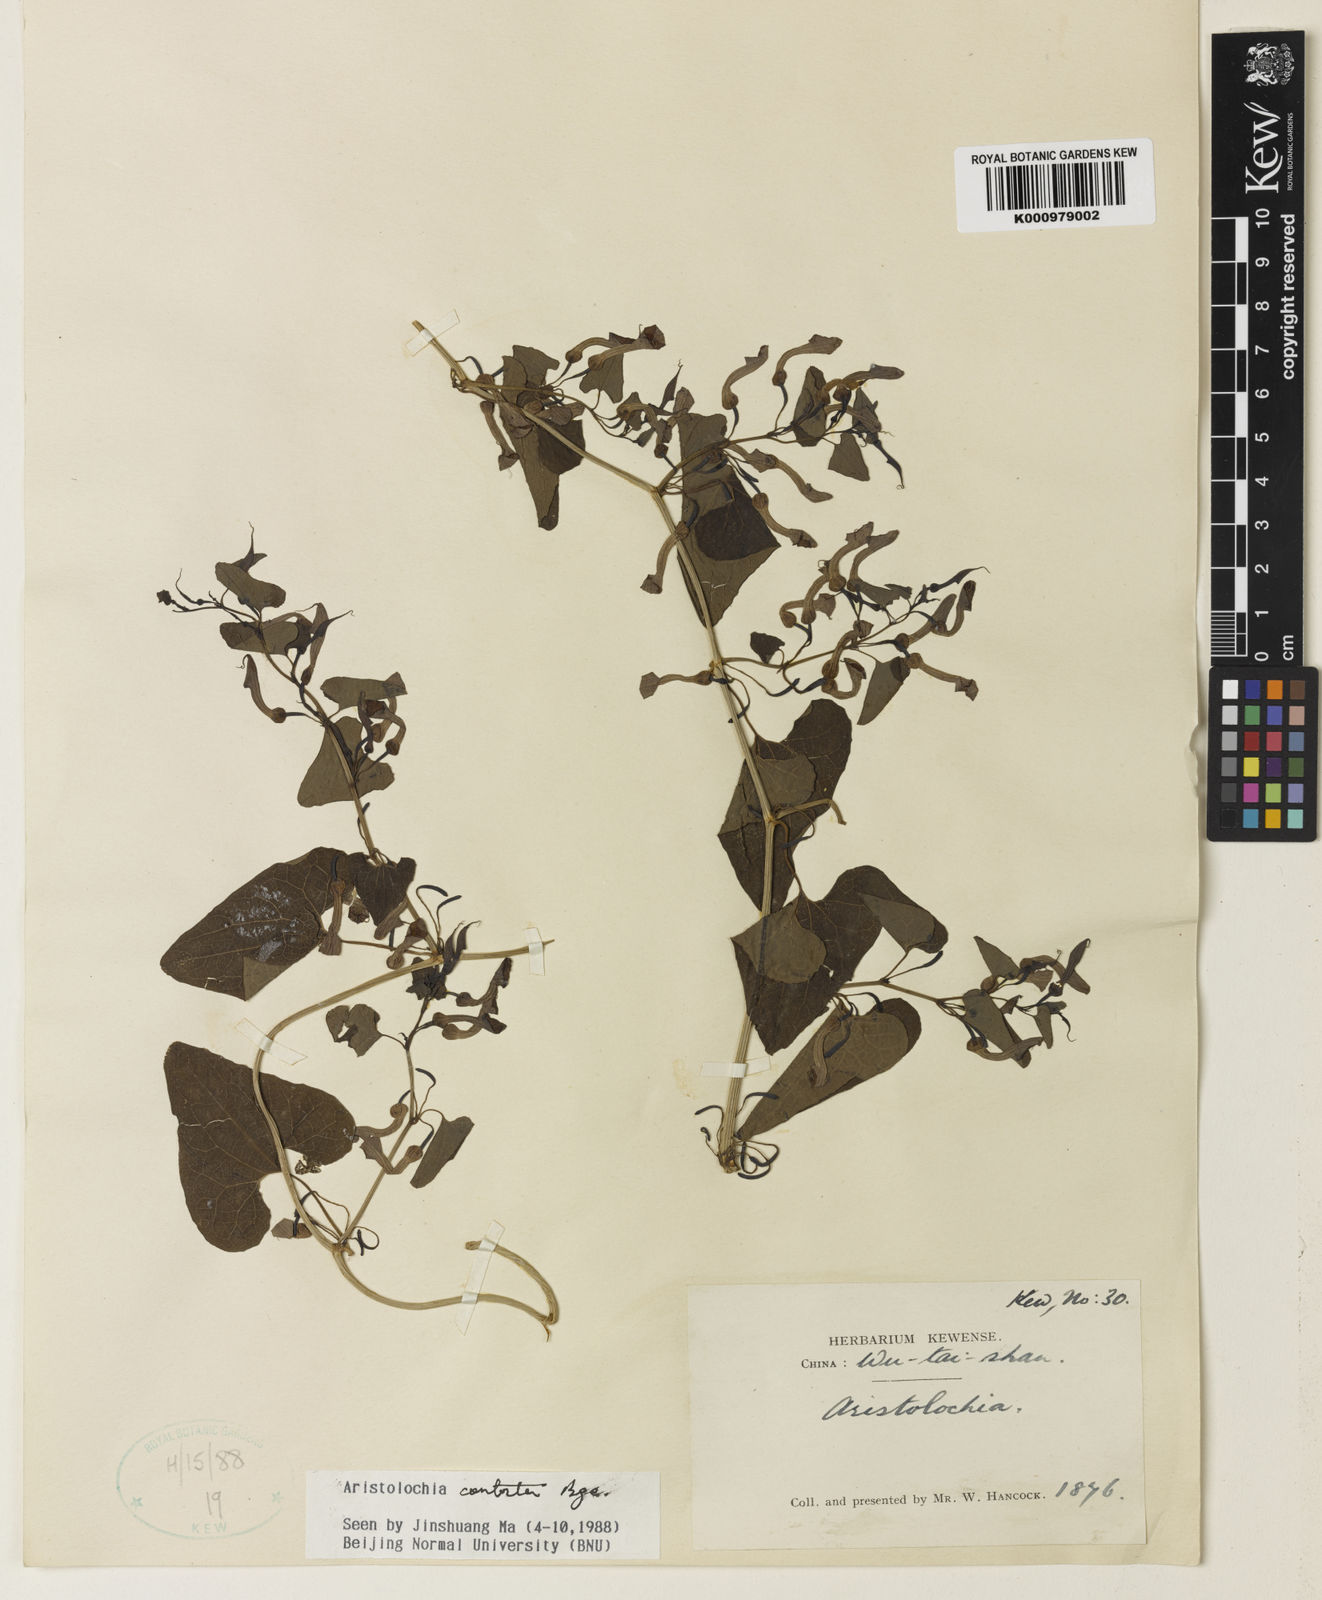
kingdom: Plantae
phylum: Tracheophyta
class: Magnoliopsida
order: Piperales
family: Aristolochiaceae
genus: Aristolochia
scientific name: Aristolochia contorta
